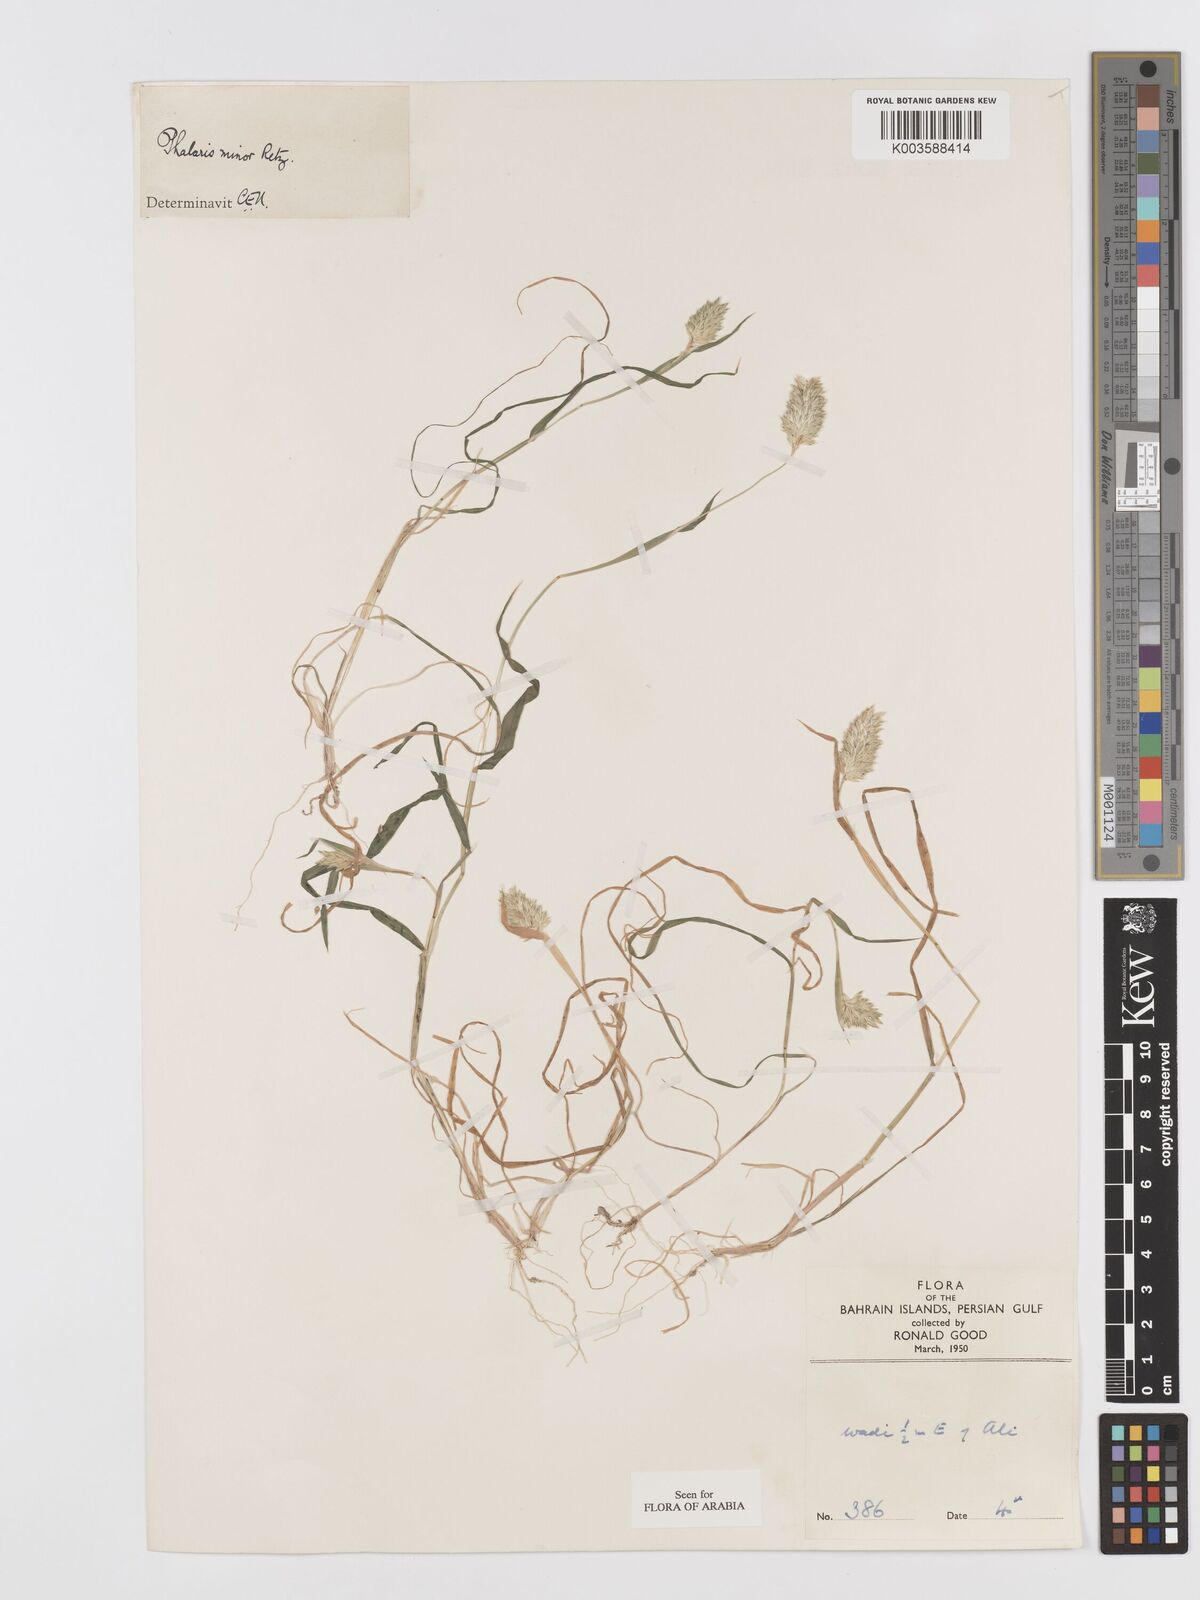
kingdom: Plantae
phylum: Tracheophyta
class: Liliopsida
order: Poales
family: Poaceae
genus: Phalaris
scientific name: Phalaris minor
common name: Littleseed canarygrass
